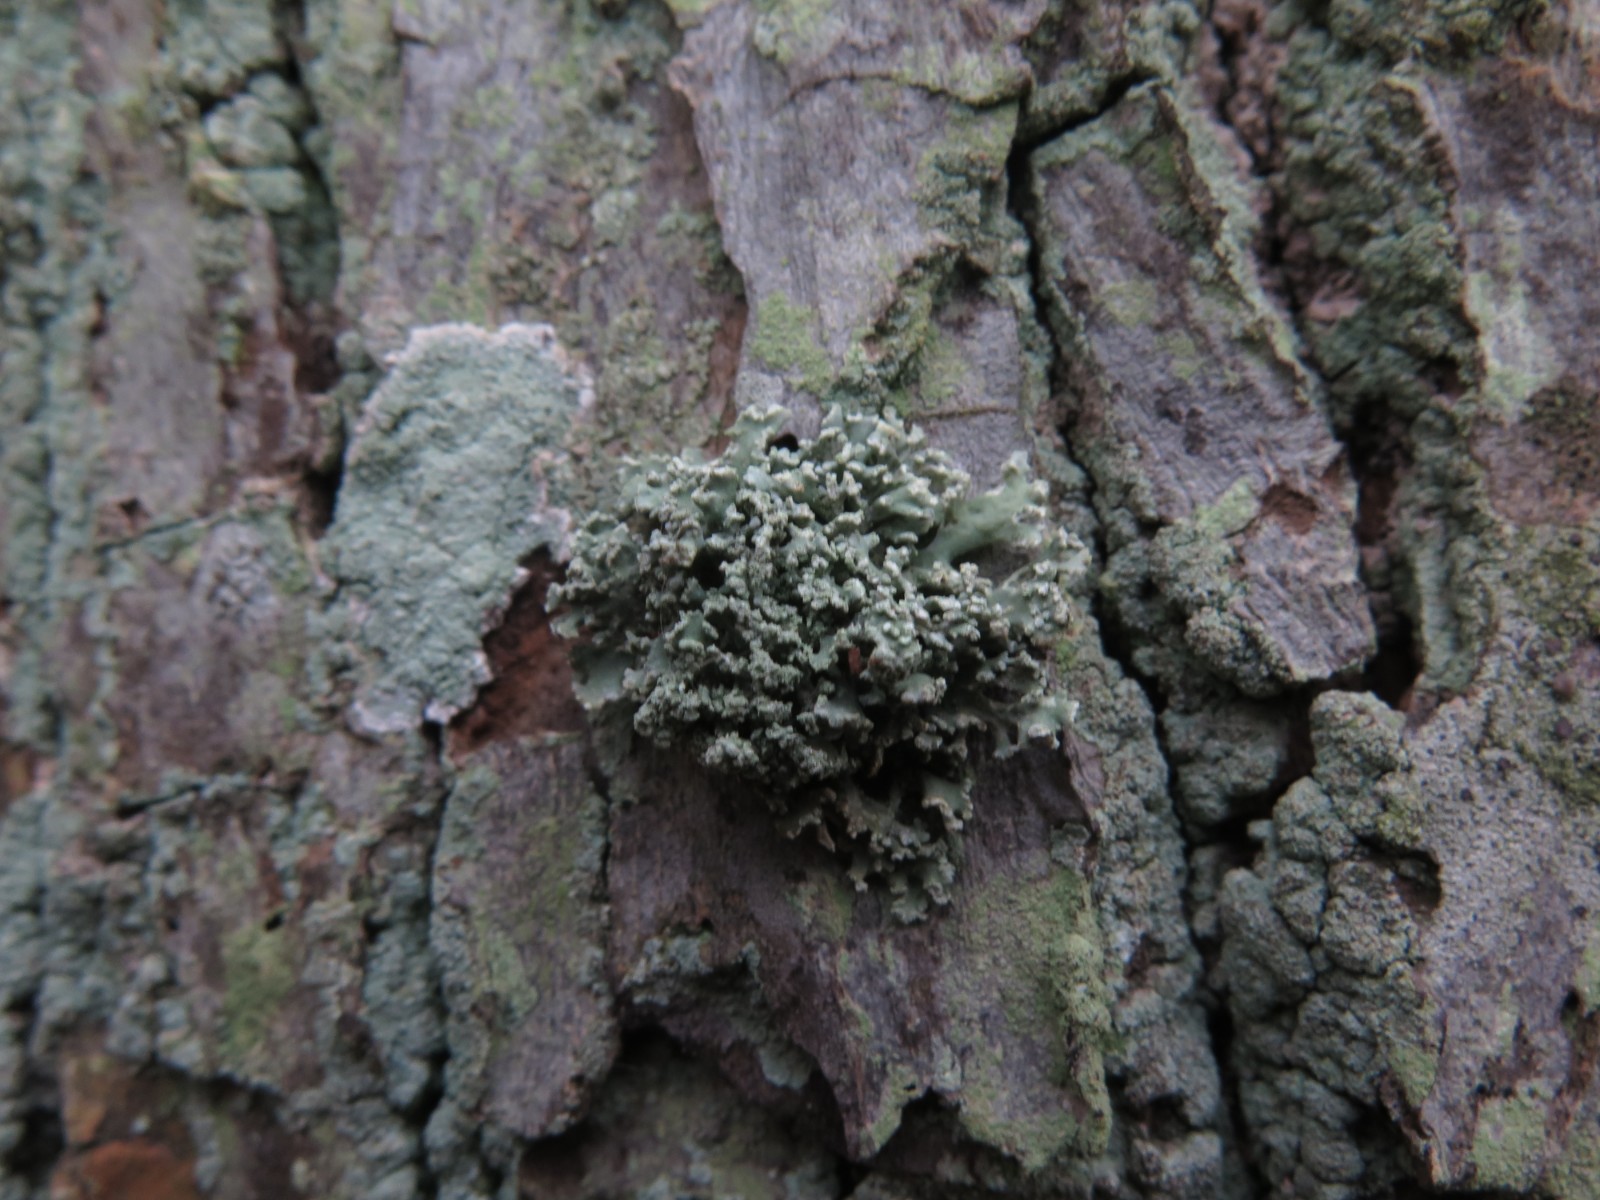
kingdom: Fungi
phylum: Ascomycota
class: Lecanoromycetes
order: Lecanorales
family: Ramalinaceae
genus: Ramalina
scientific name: Ramalina fastigiata
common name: tue-grenlav
